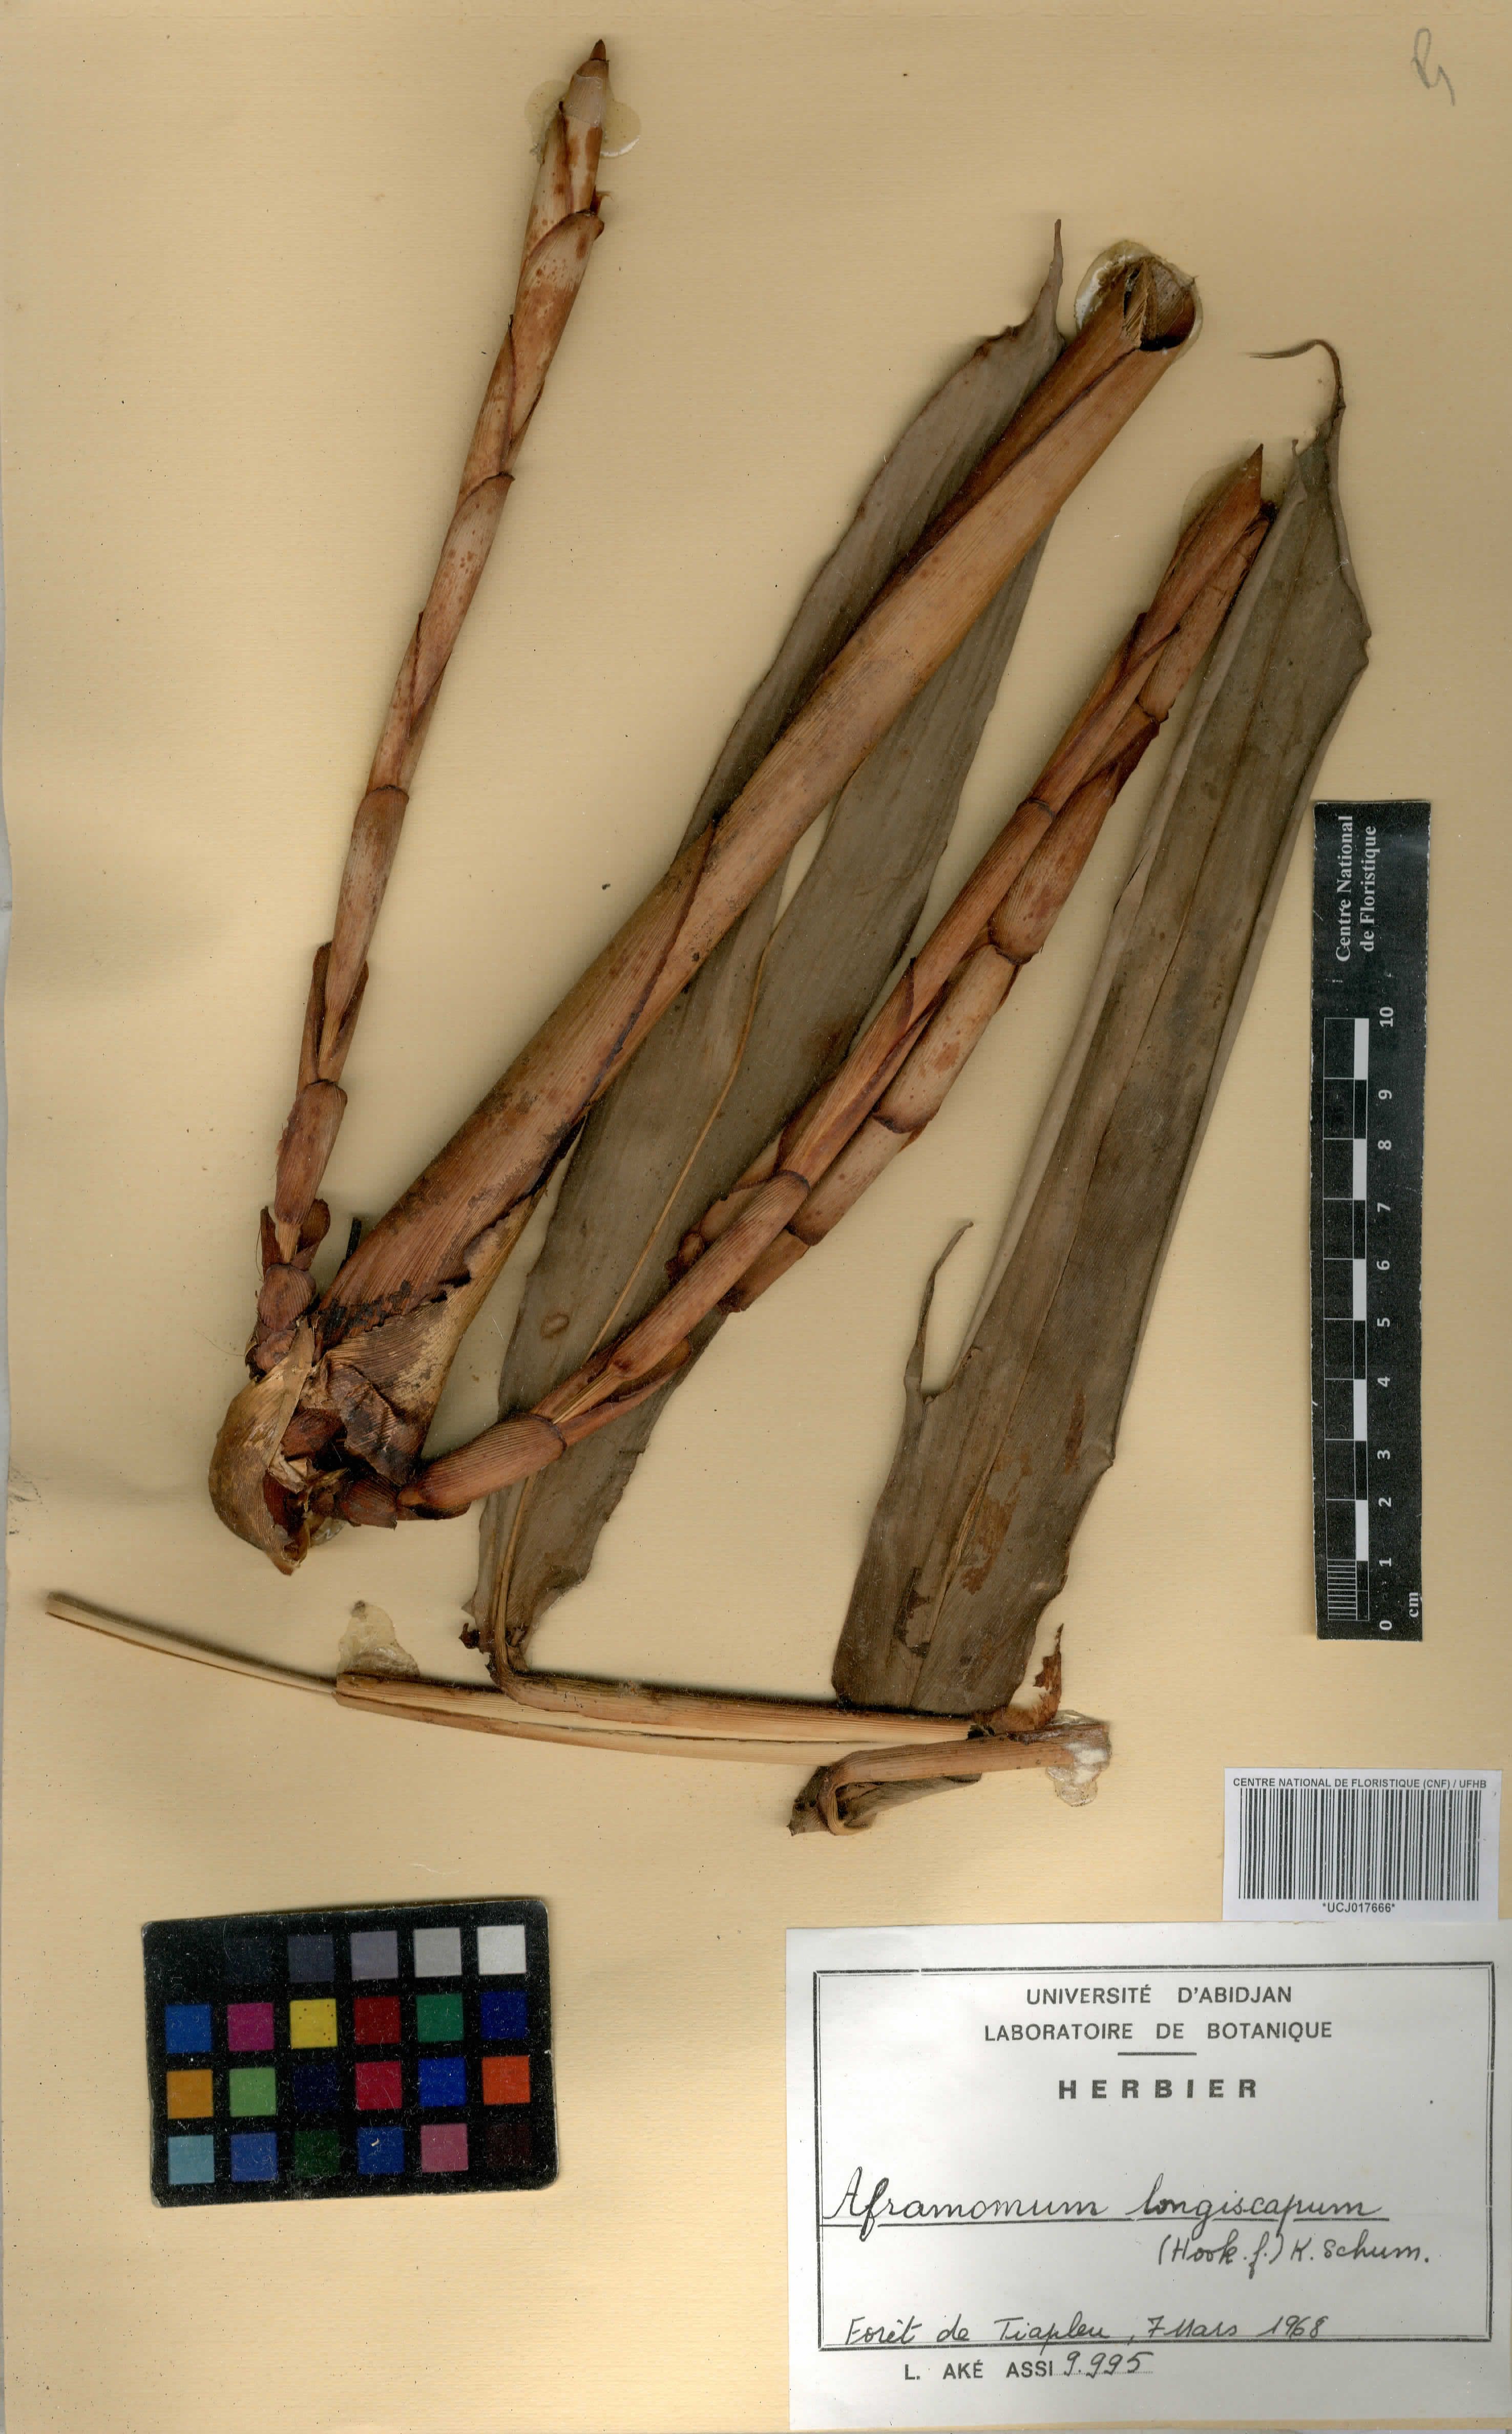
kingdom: Plantae
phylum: Tracheophyta
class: Liliopsida
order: Zingiberales
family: Zingiberaceae
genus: Aframomum
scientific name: Aframomum longiscapum
